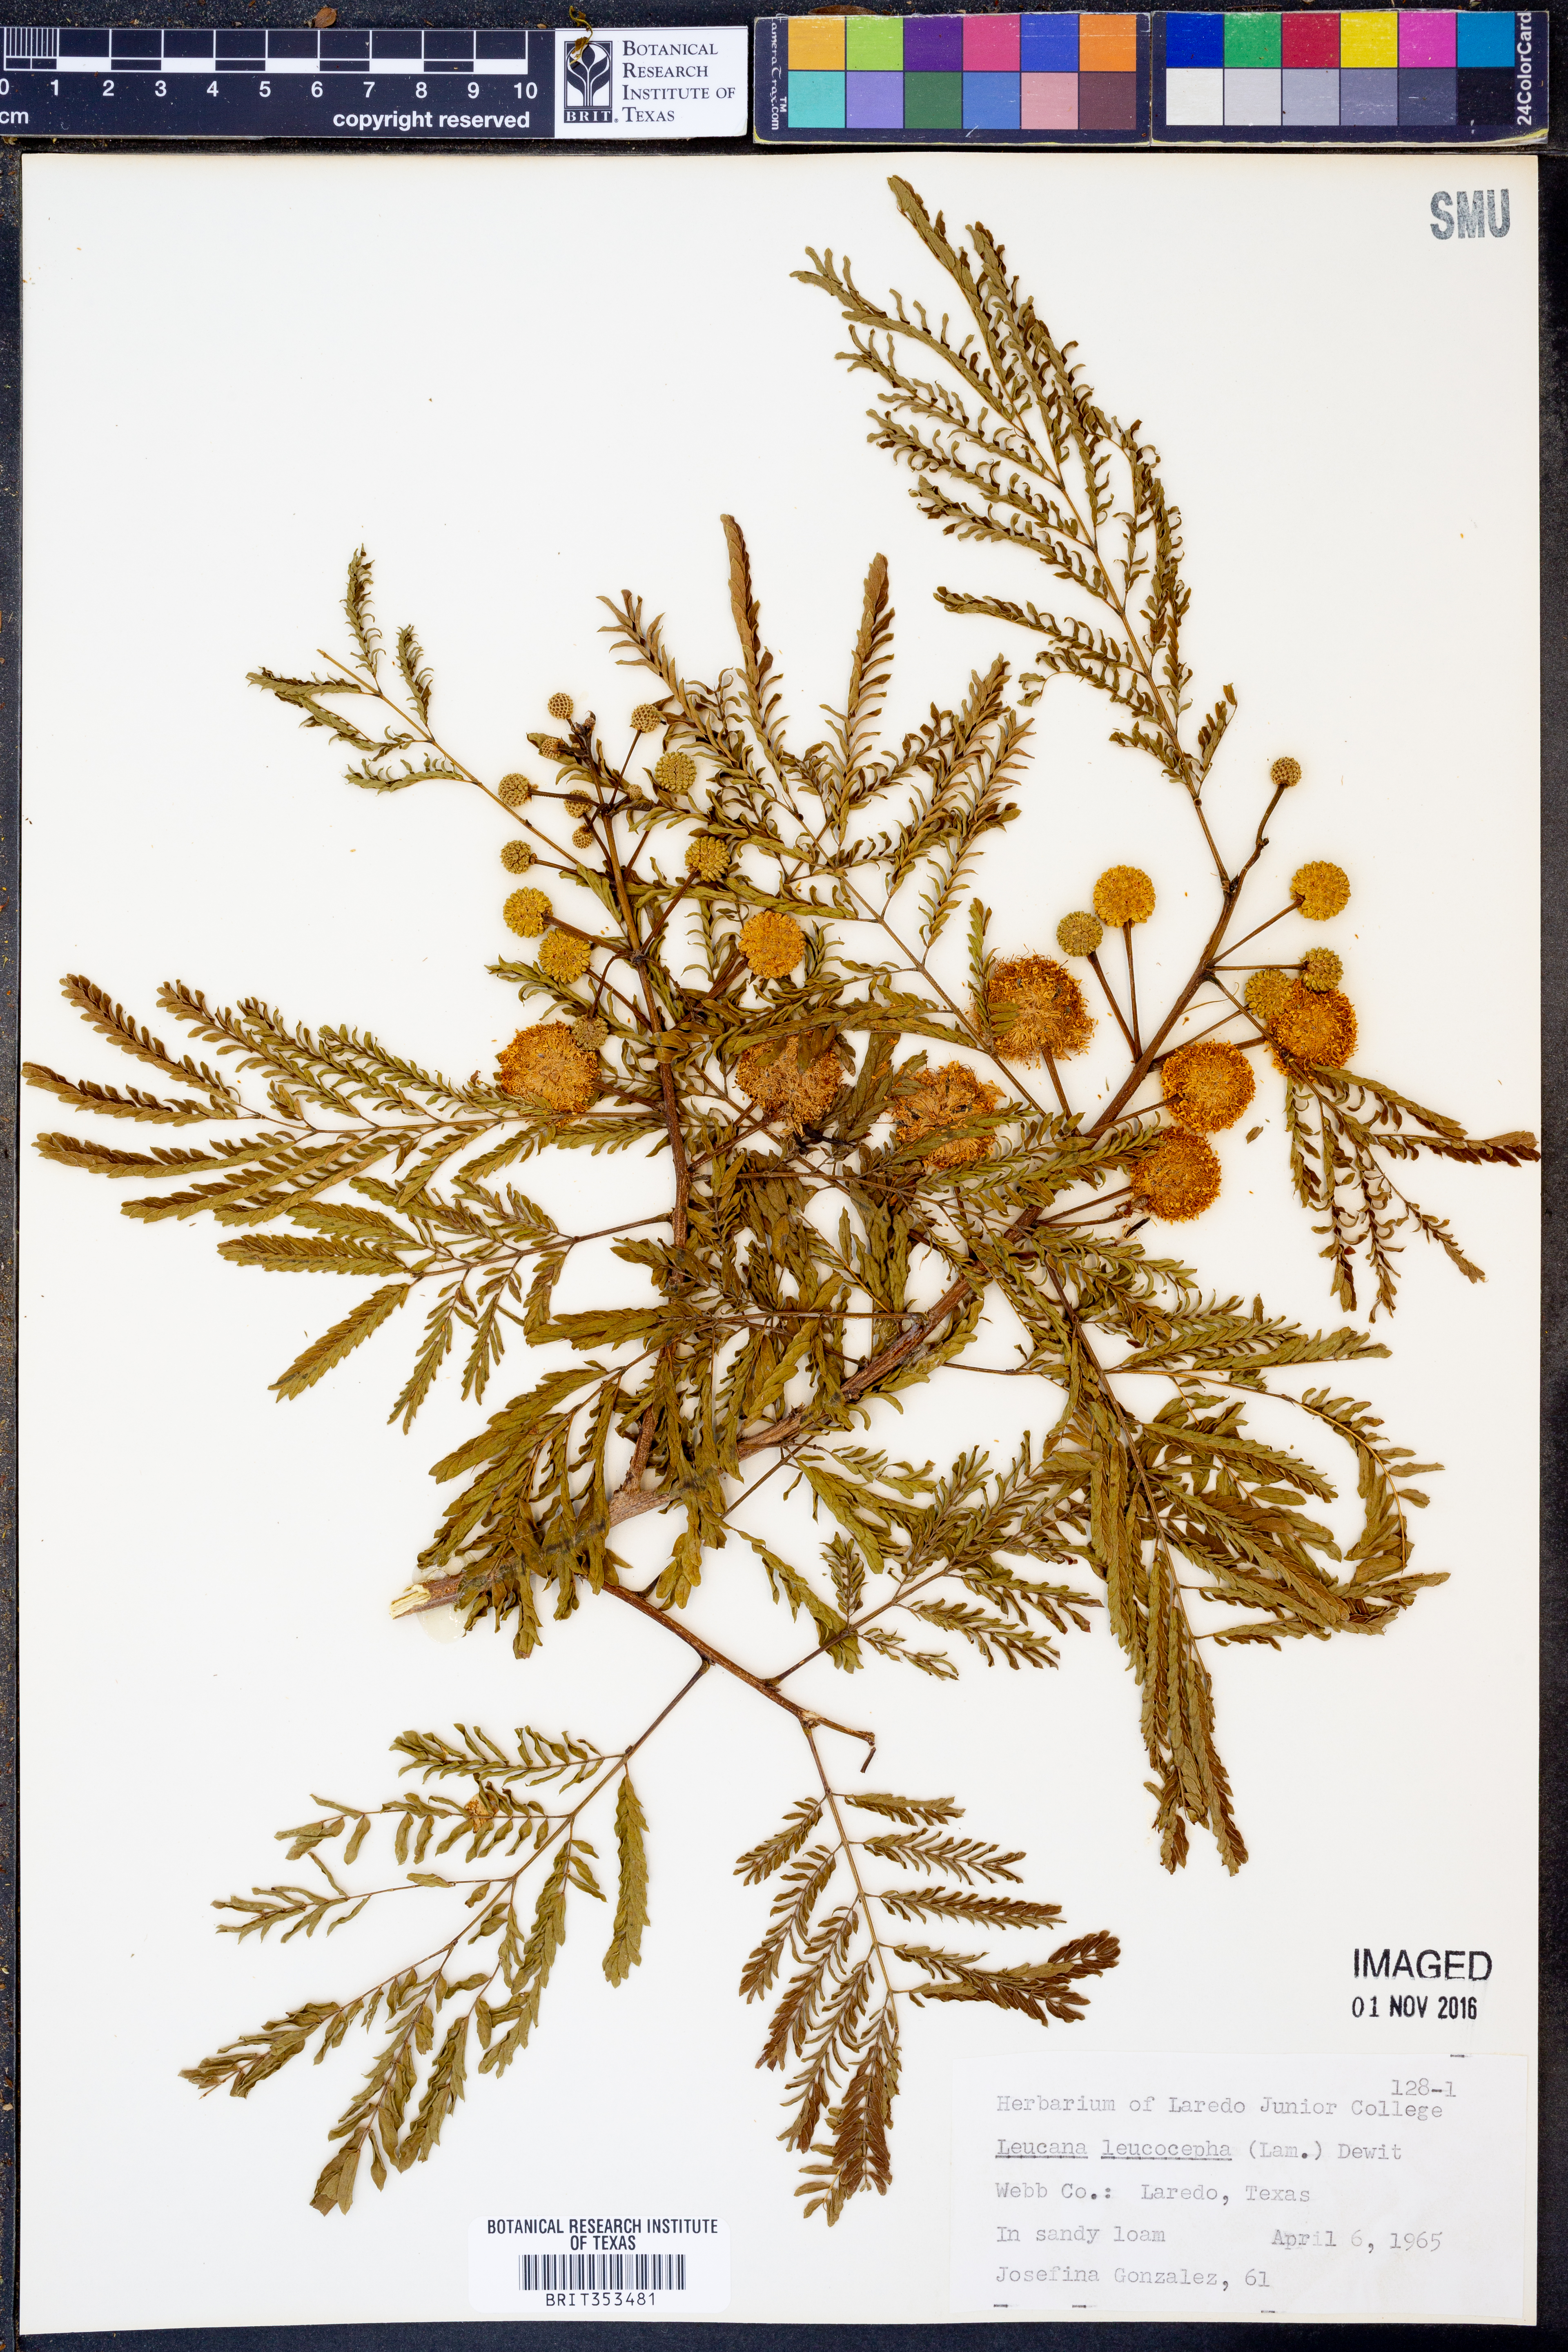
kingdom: Plantae
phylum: Tracheophyta
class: Magnoliopsida
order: Fabales
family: Fabaceae
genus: Leucaena
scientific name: Leucaena leucocephala
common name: White leadtree
